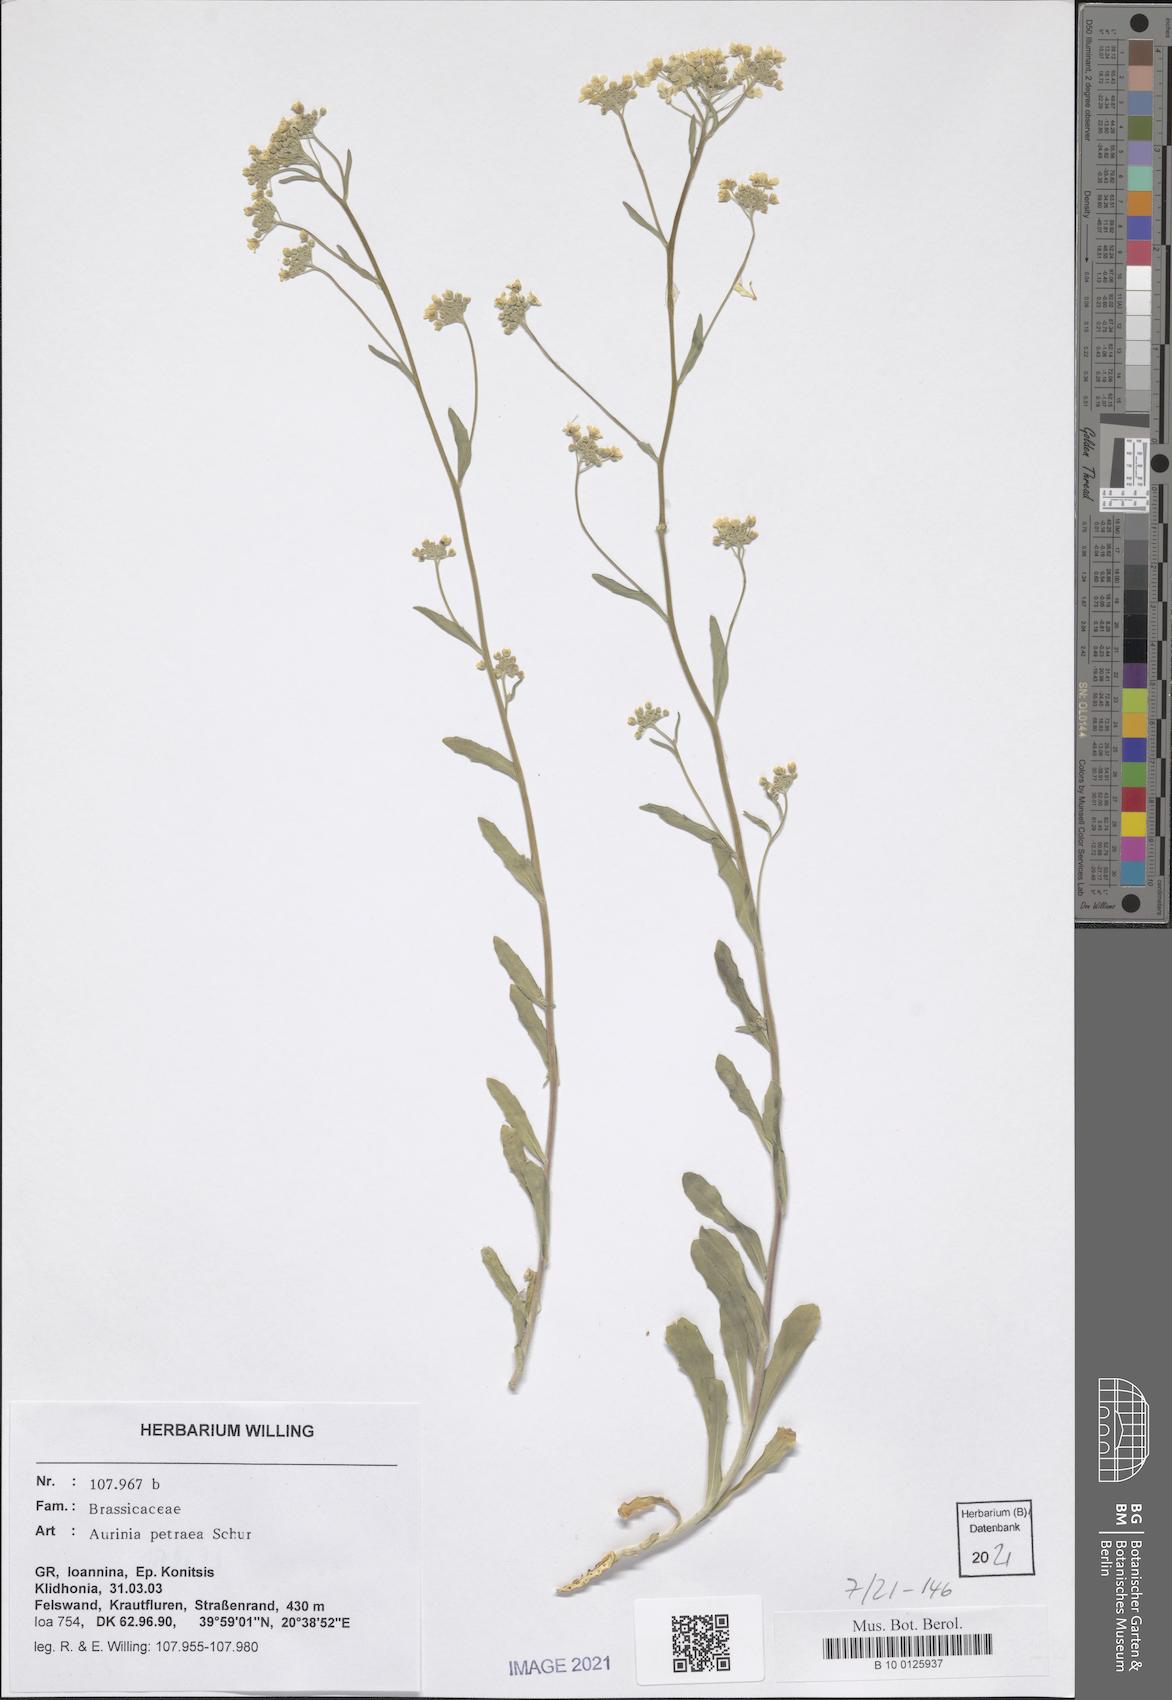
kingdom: Plantae
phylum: Tracheophyta
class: Magnoliopsida
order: Brassicales
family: Brassicaceae
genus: Aurinia
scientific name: Aurinia petraea
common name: Goldentuft
